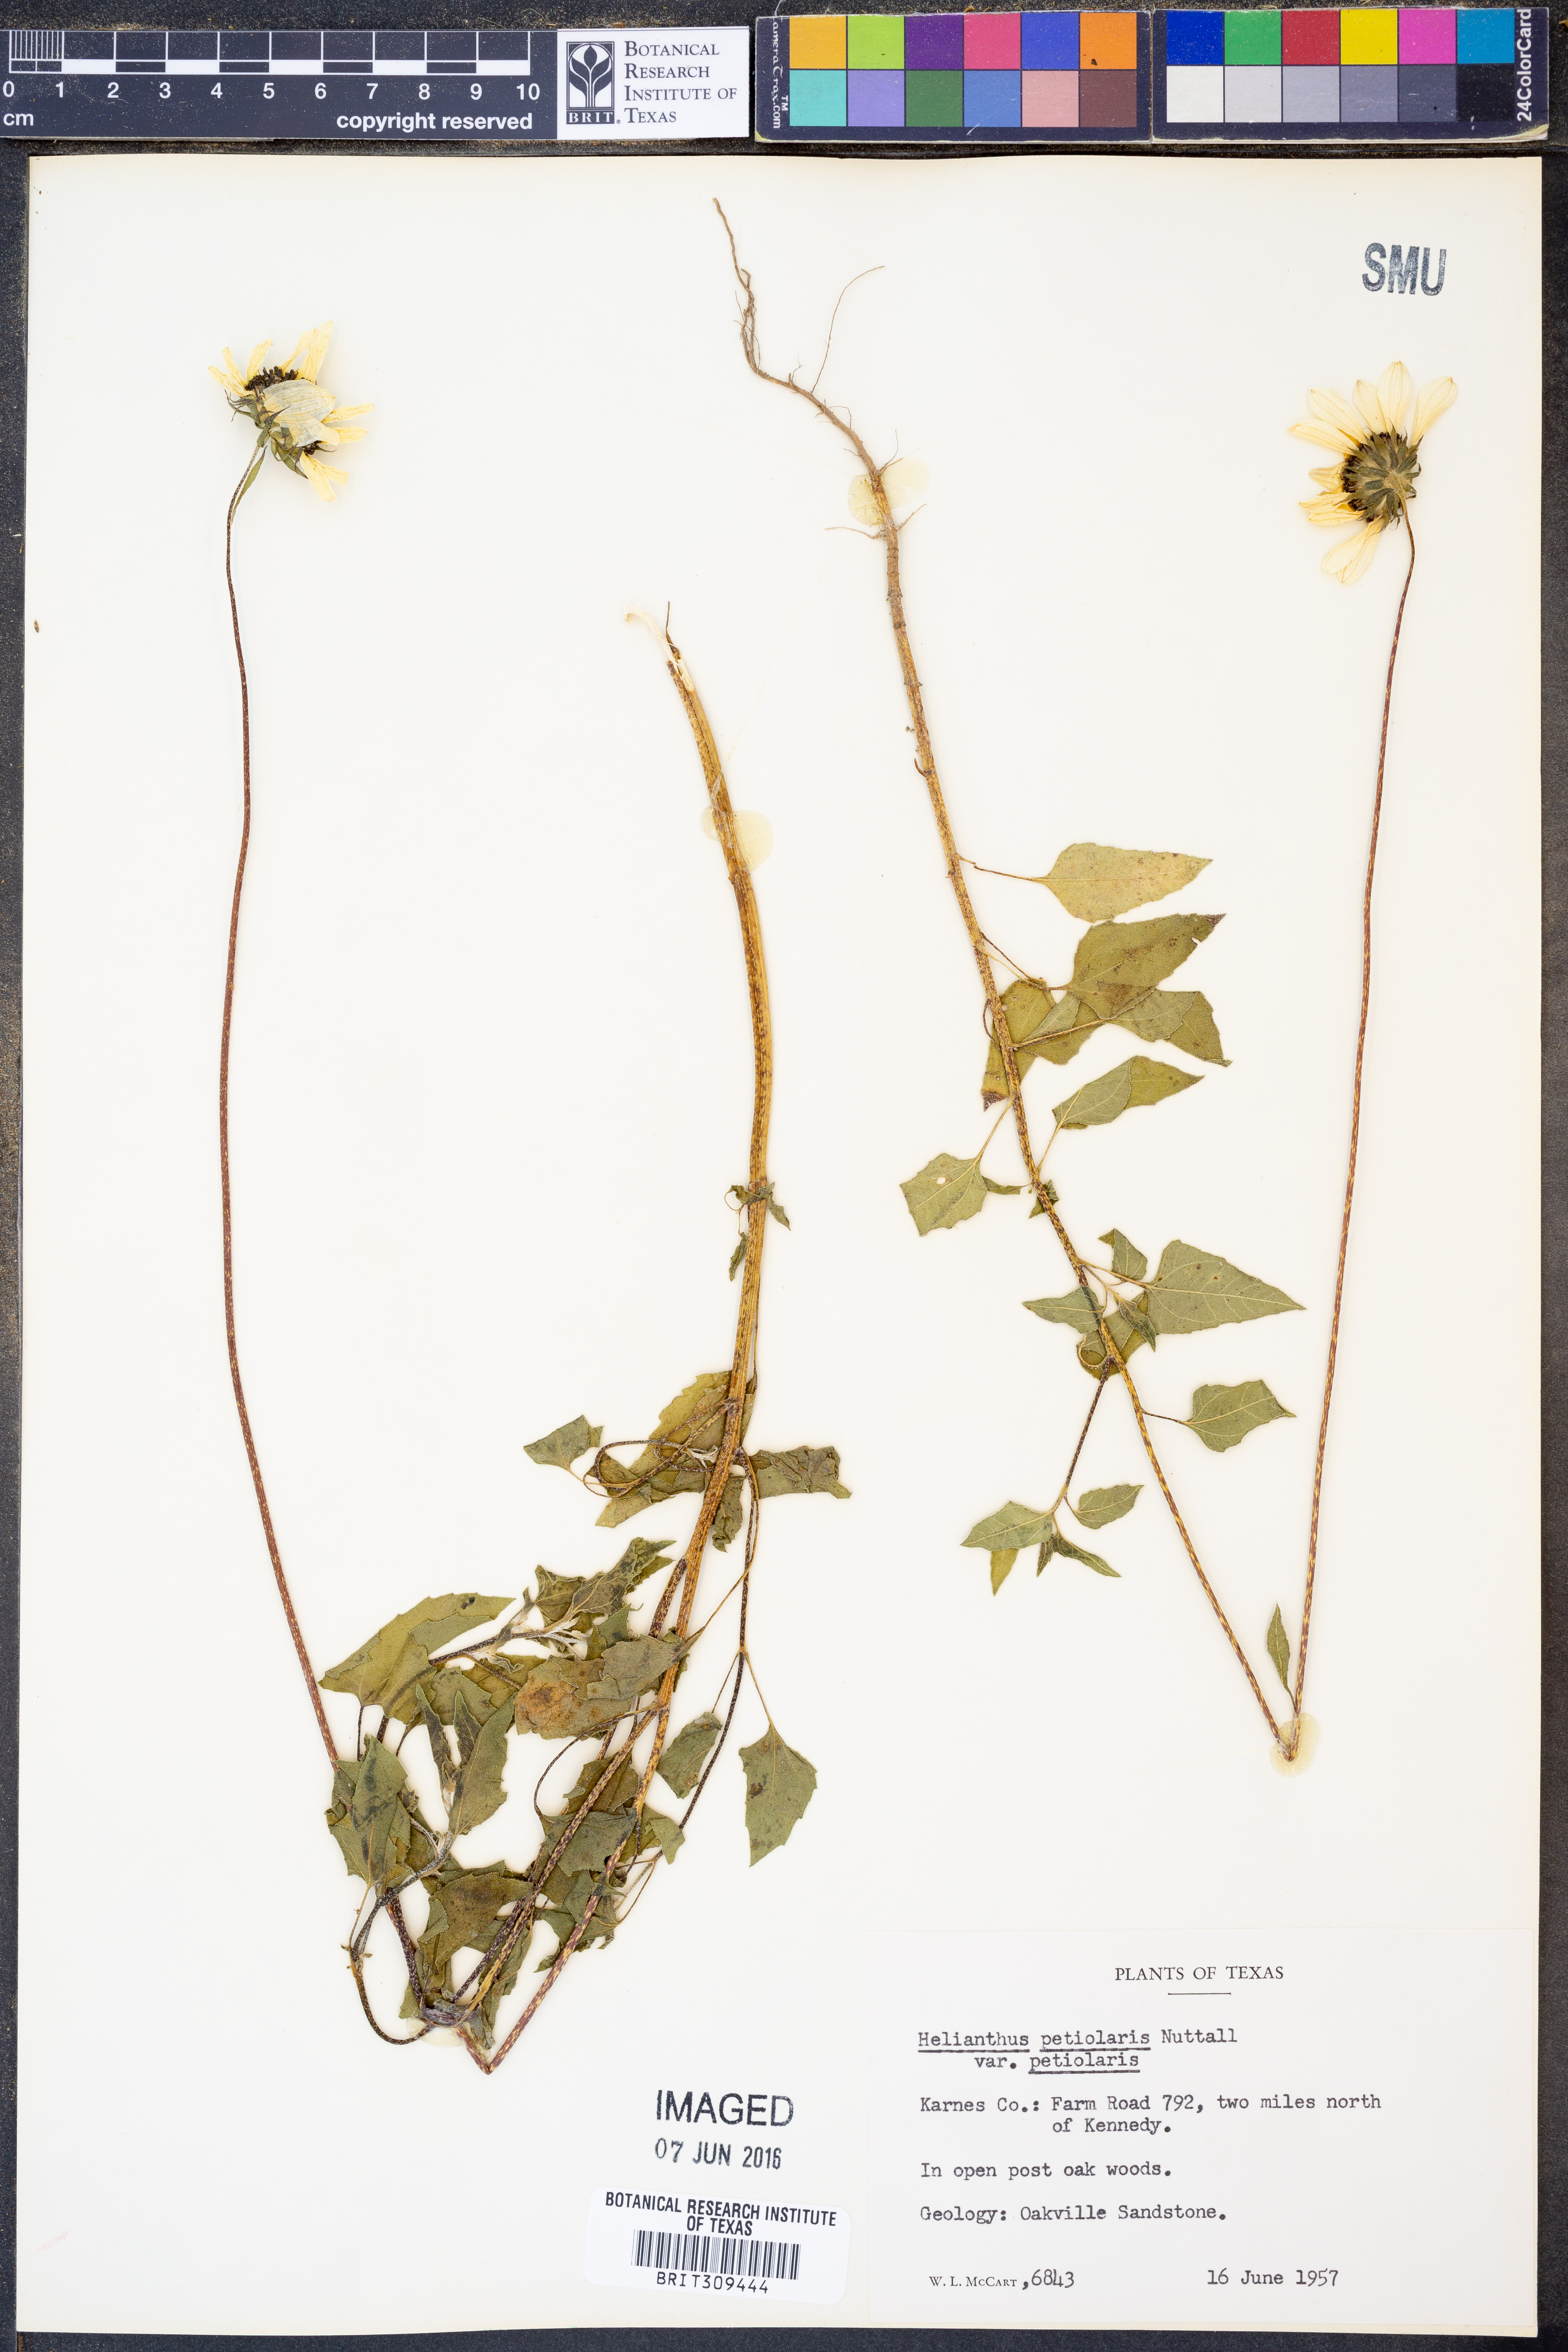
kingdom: Plantae
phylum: Tracheophyta
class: Magnoliopsida
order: Asterales
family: Asteraceae
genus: Helianthus
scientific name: Helianthus petiolaris
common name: Lesser sunflower
